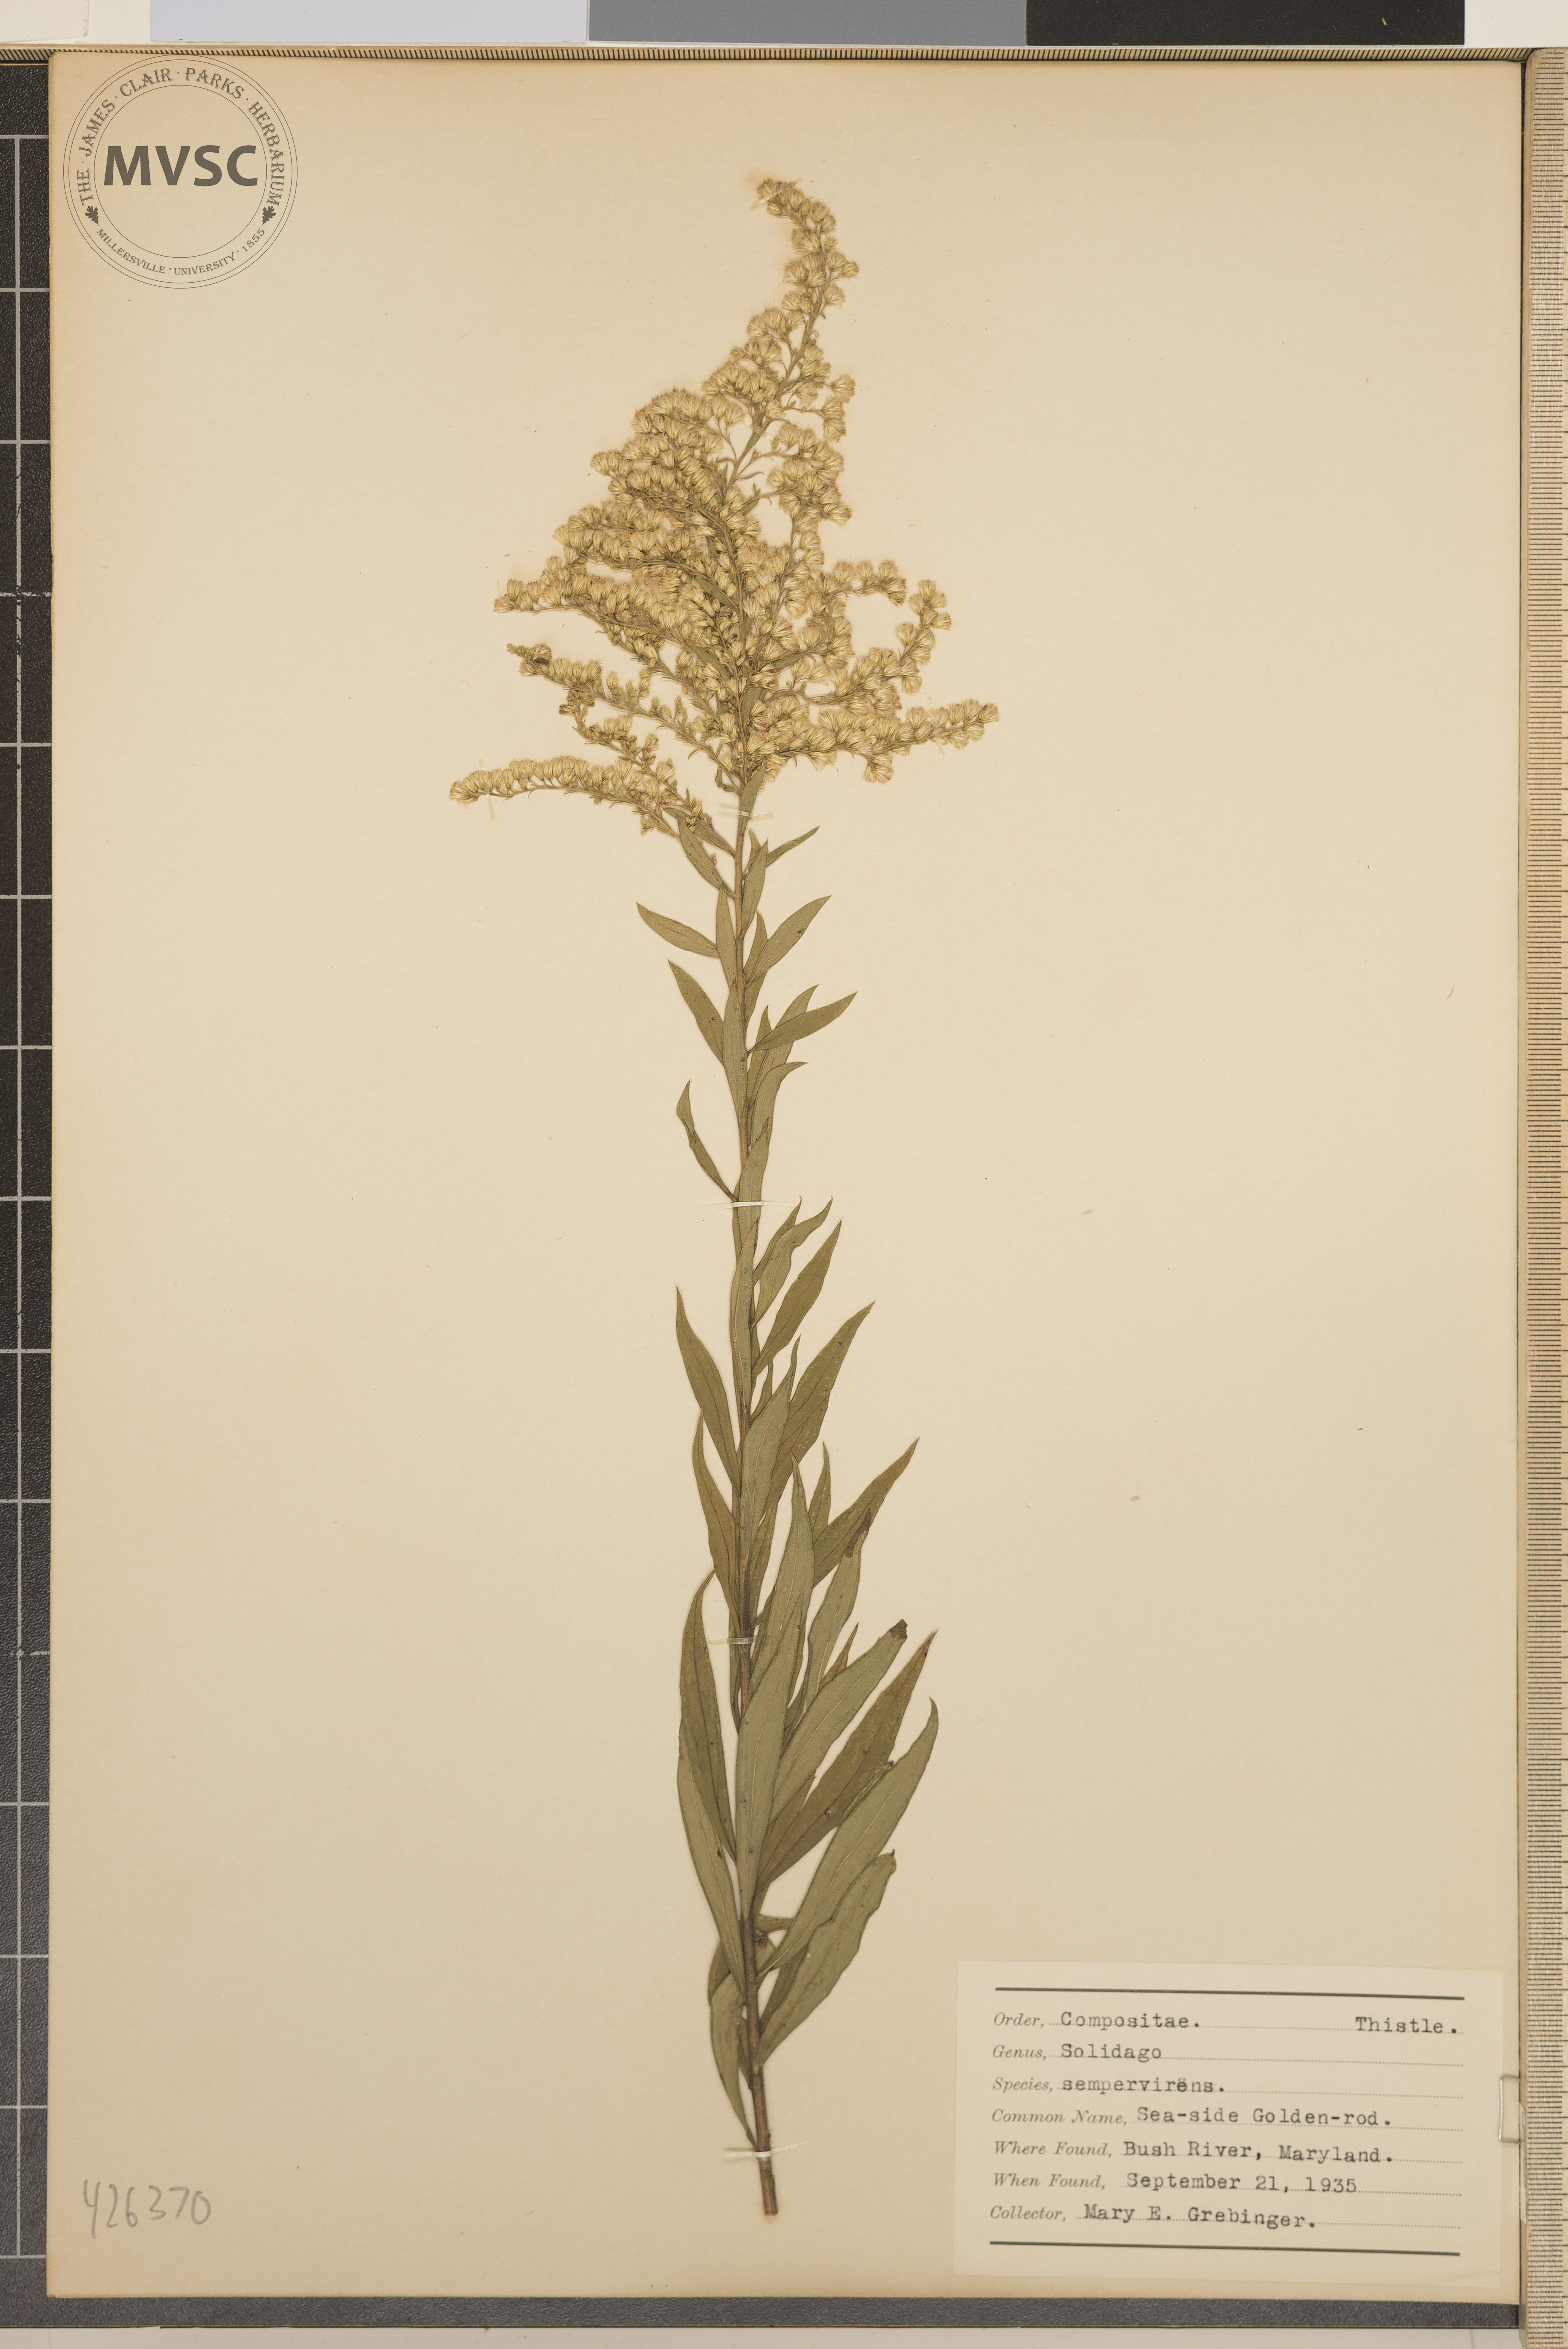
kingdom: Plantae
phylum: Tracheophyta
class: Magnoliopsida
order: Asterales
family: Asteraceae
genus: Solidago
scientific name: Solidago sempervirens
